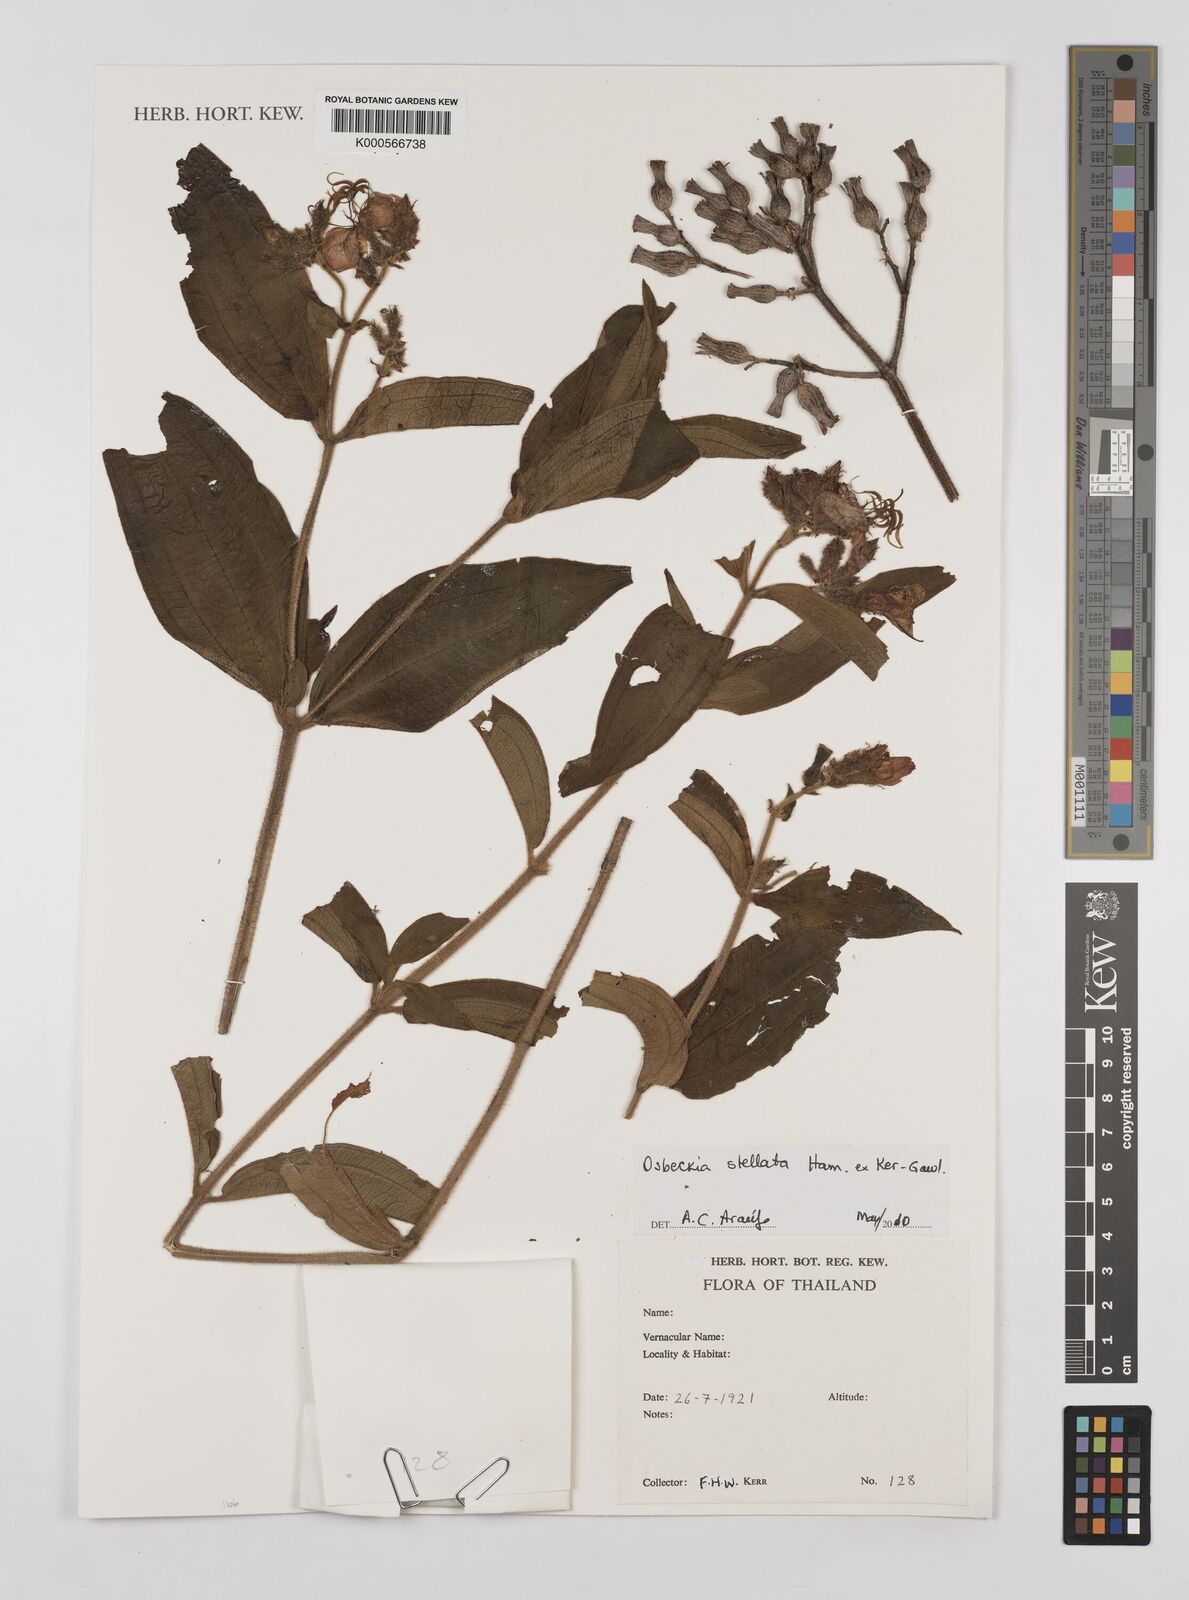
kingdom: Plantae
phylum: Tracheophyta
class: Magnoliopsida
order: Myrtales
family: Melastomataceae
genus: Osbeckia
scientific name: Osbeckia
